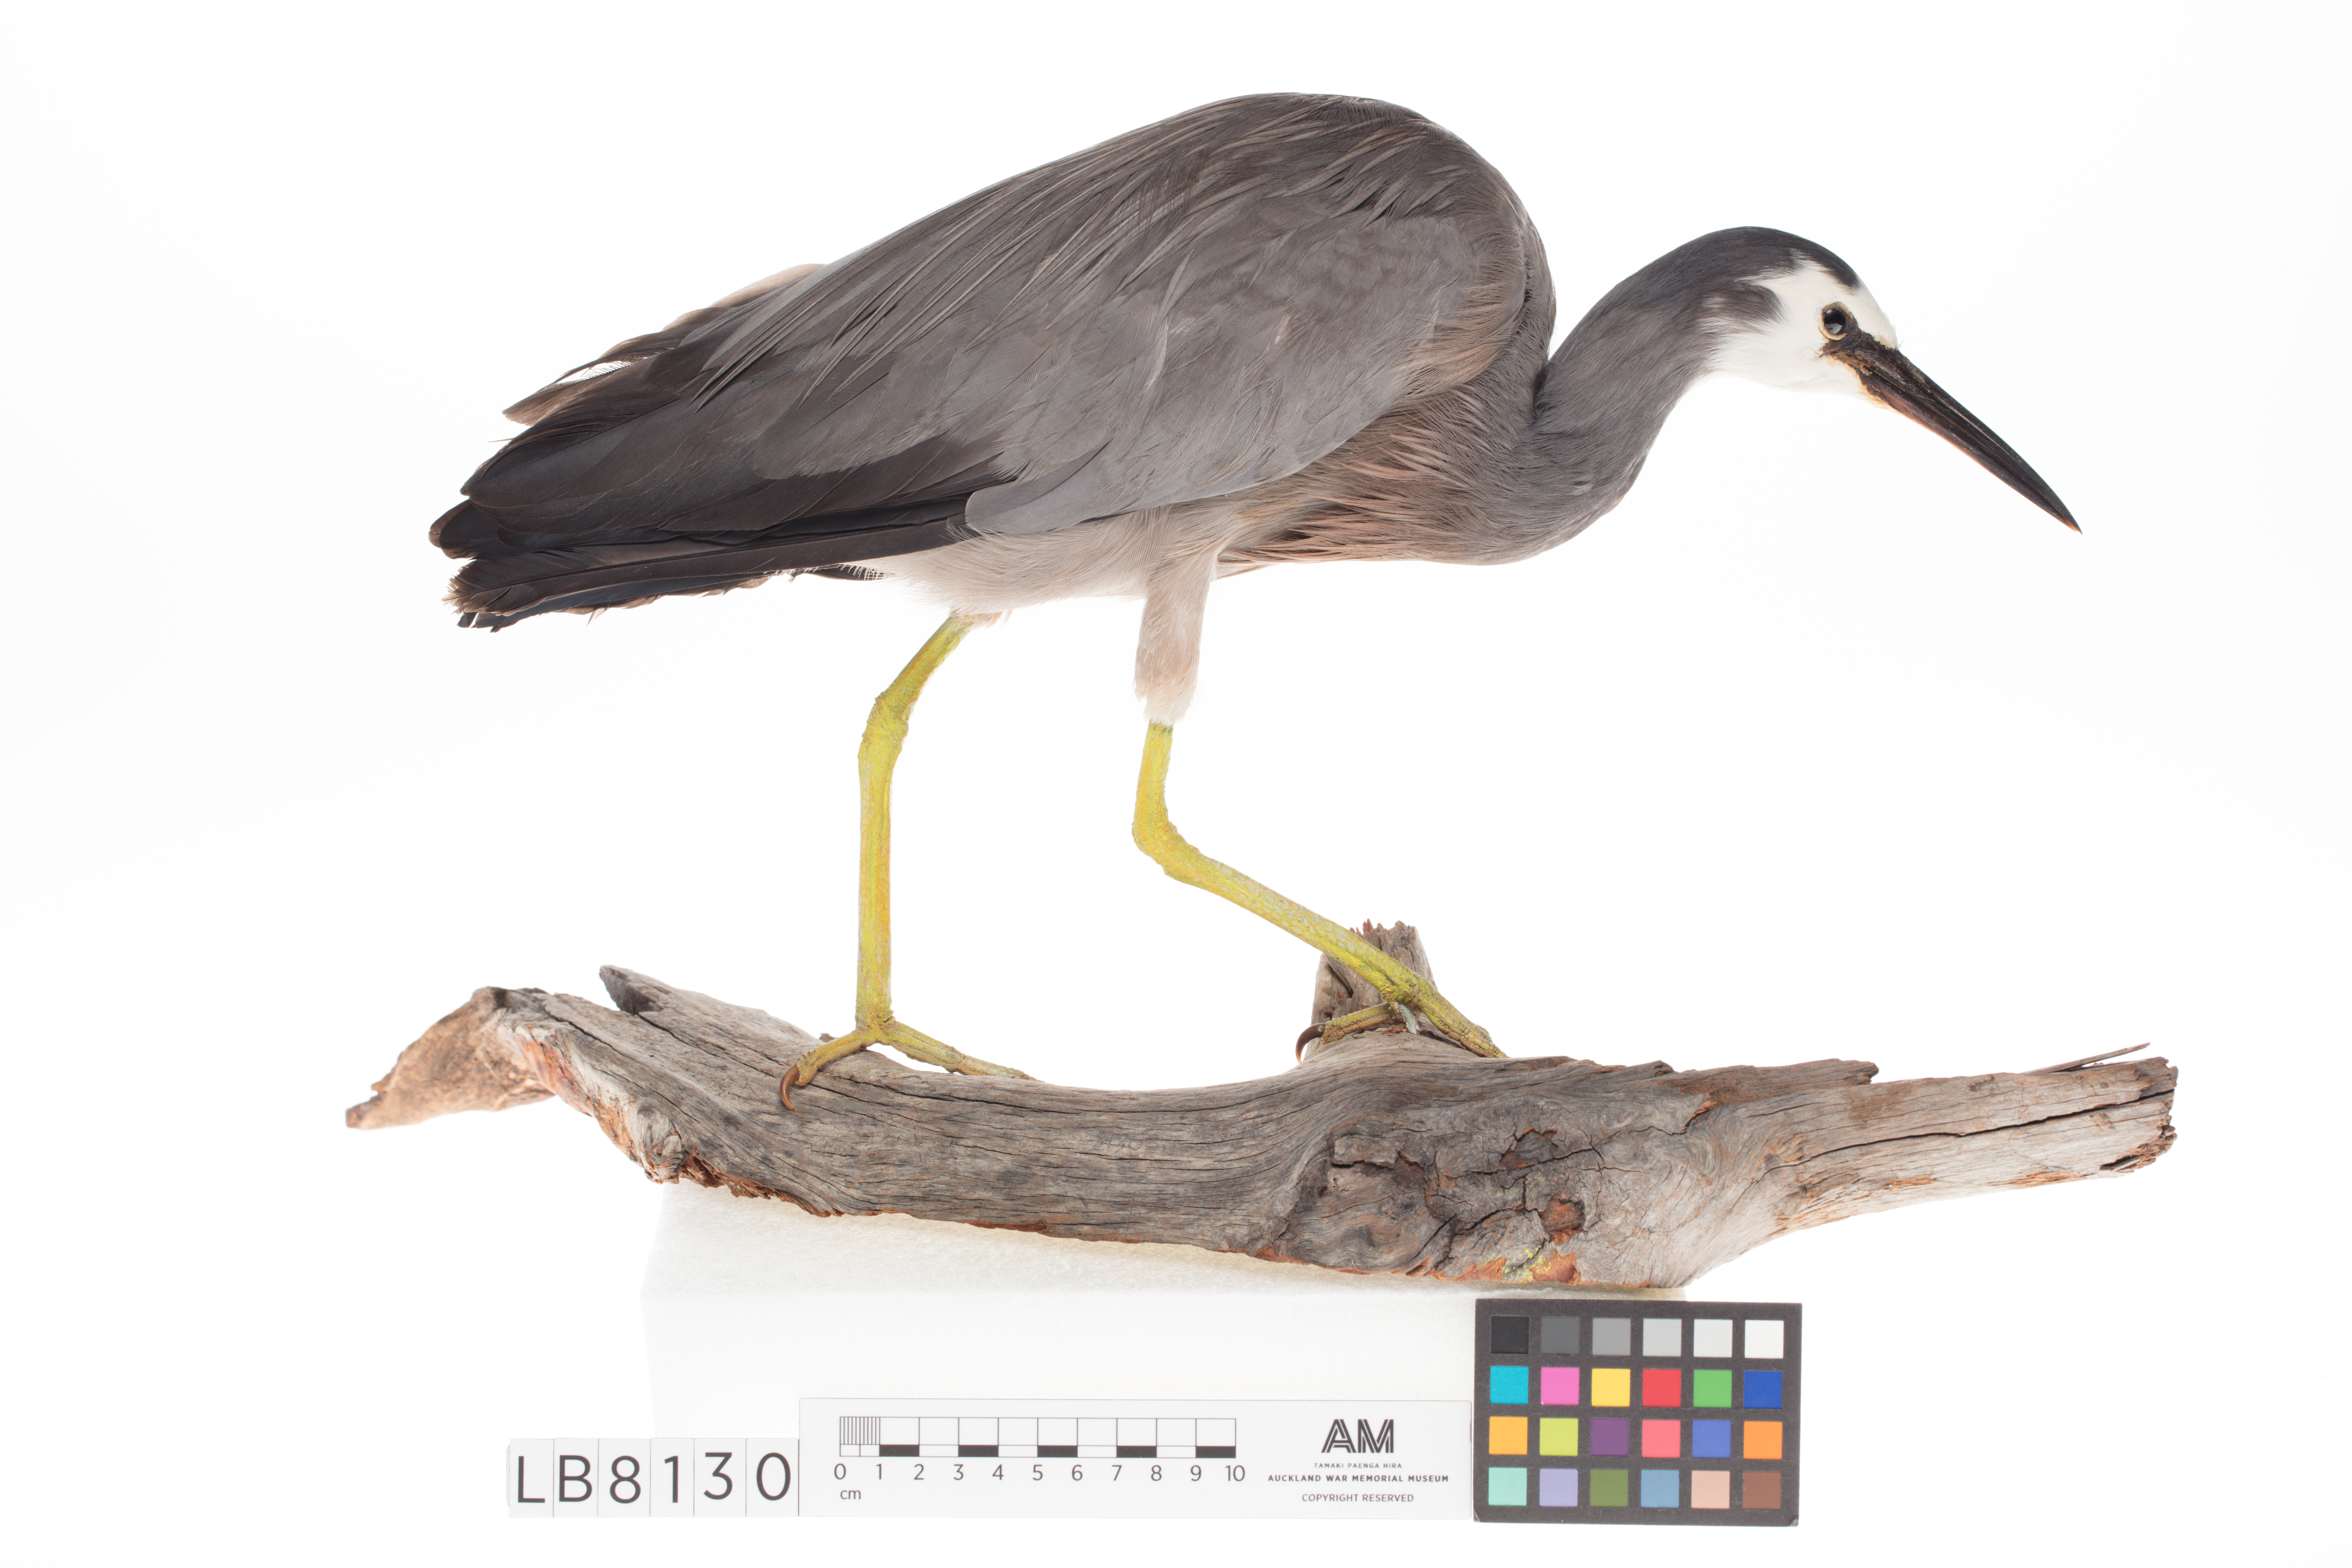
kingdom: Animalia
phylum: Chordata
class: Aves
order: Pelecaniformes
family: Ardeidae
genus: Egretta
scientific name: Egretta novaehollandiae
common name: White-faced heron
